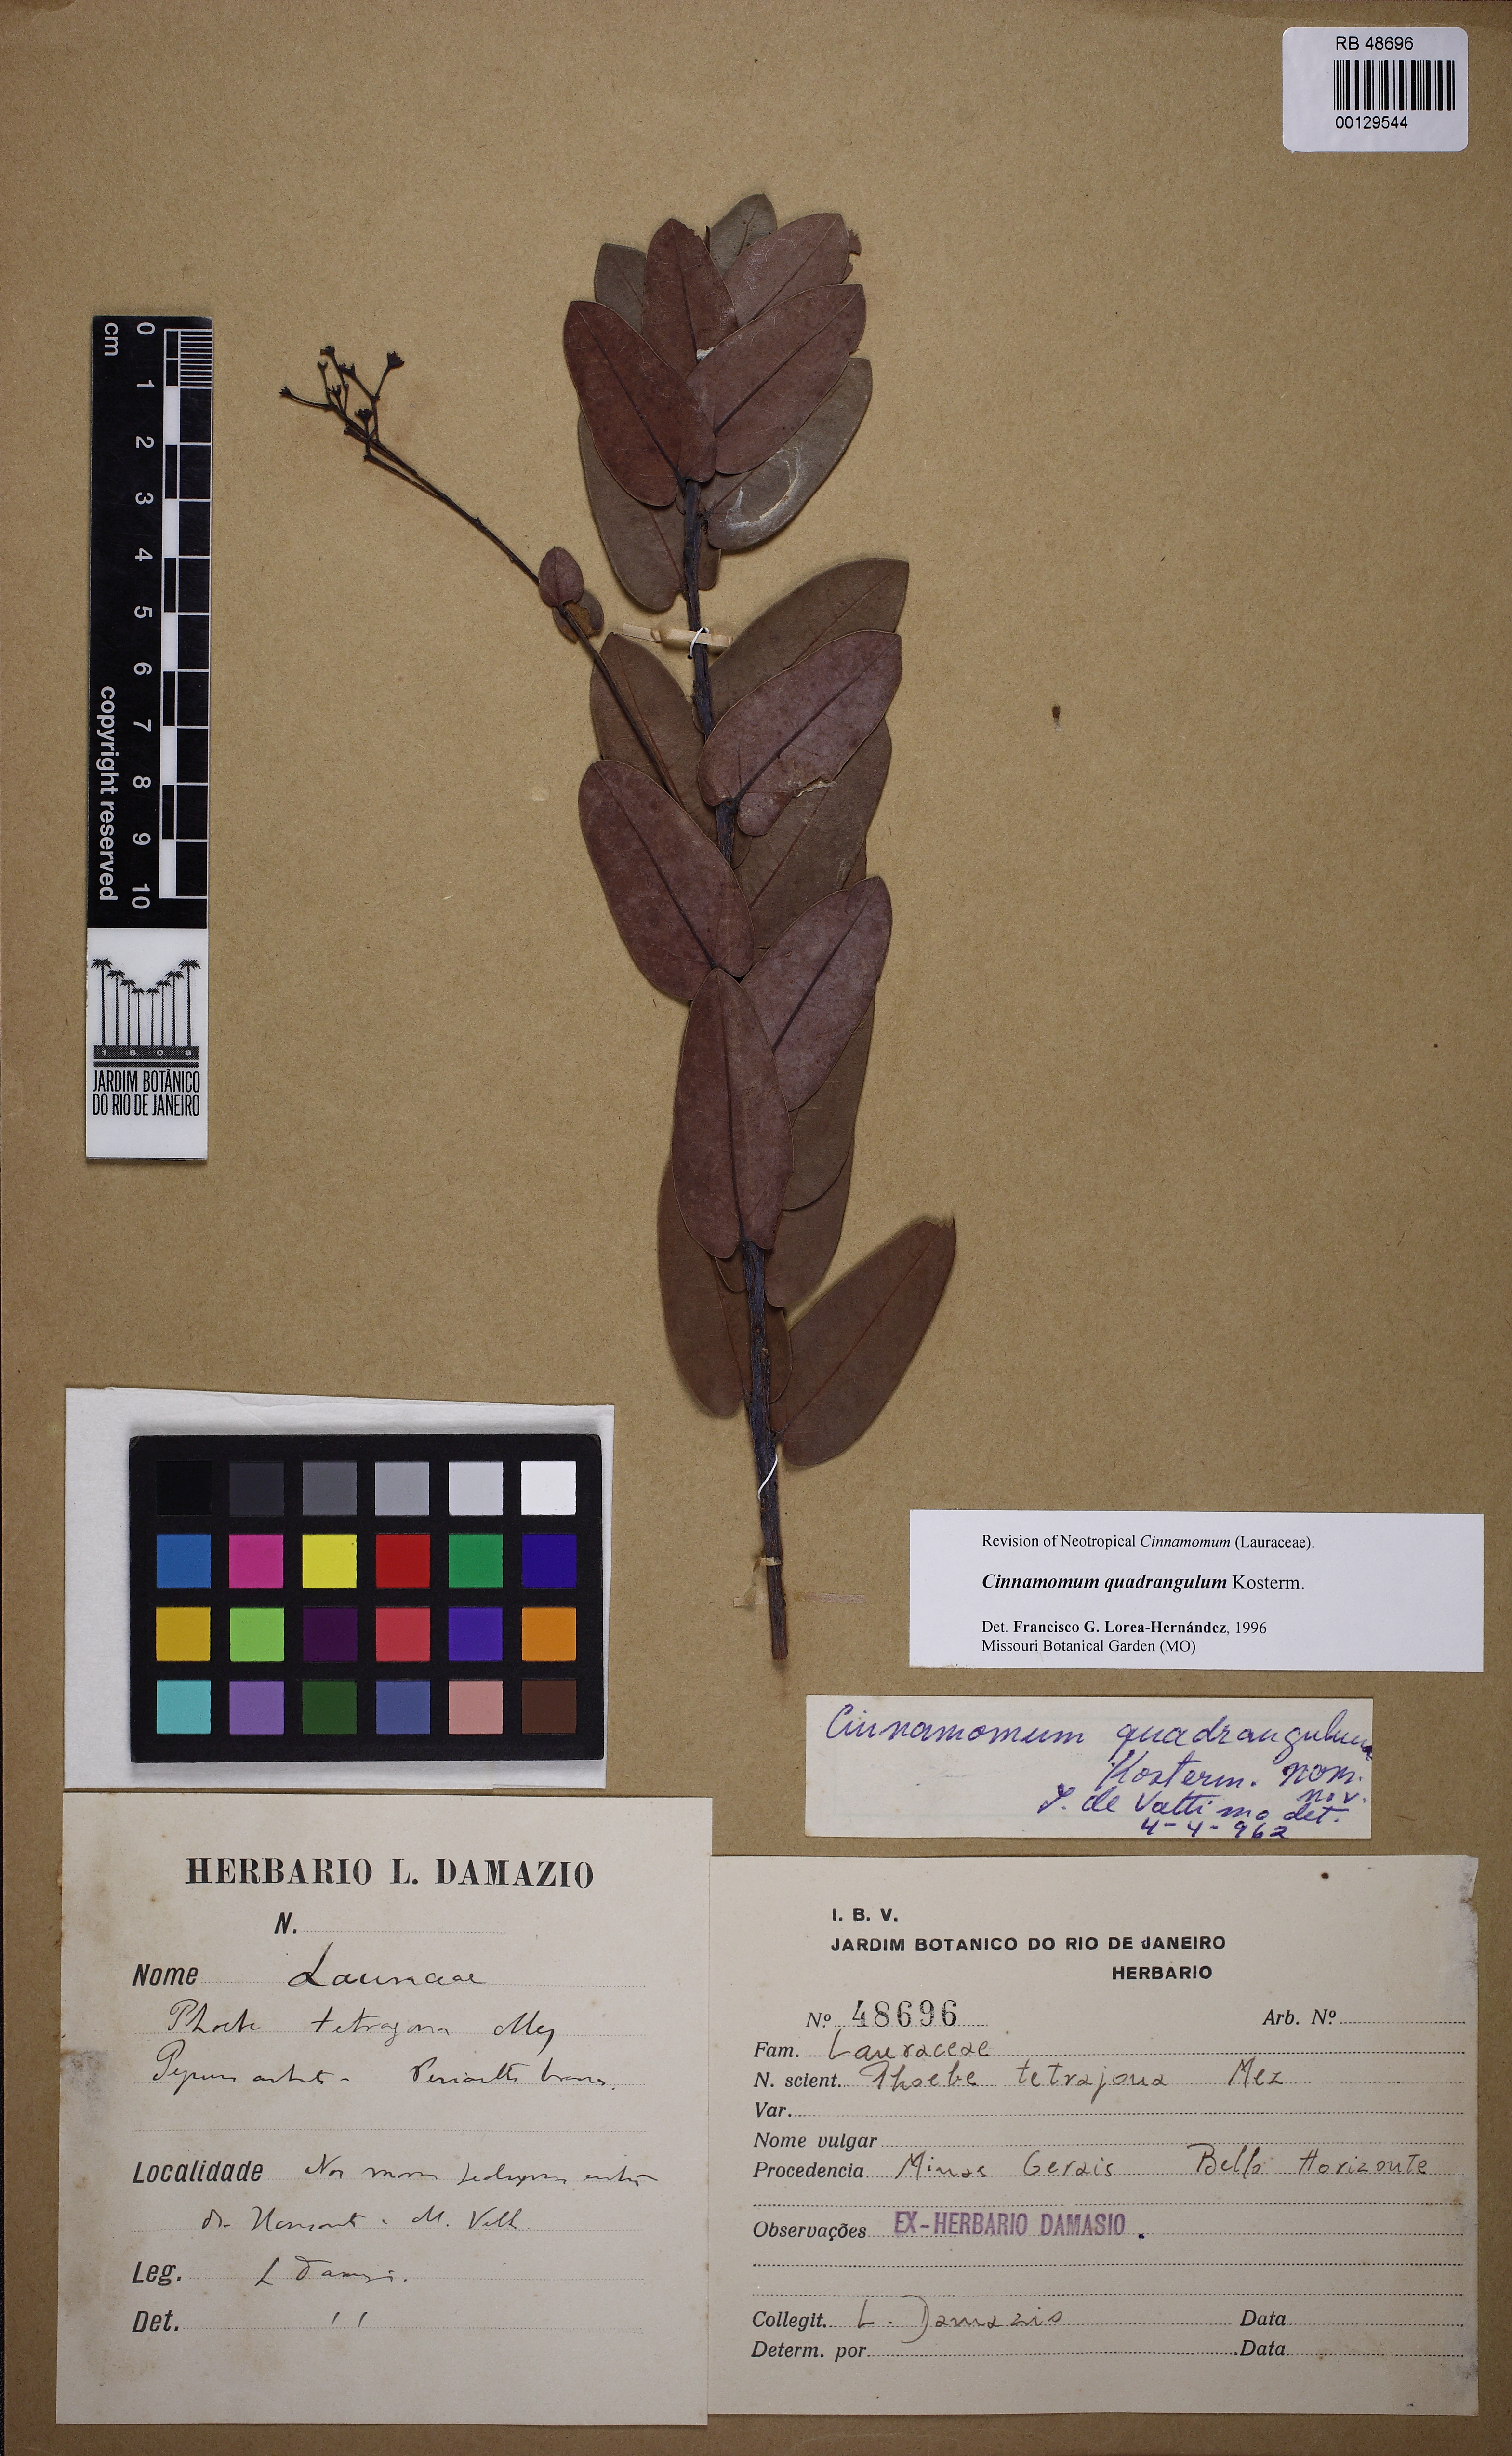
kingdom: Plantae
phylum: Tracheophyta
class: Magnoliopsida
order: Laurales
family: Lauraceae
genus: Aiouea
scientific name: Aiouea tetragona
